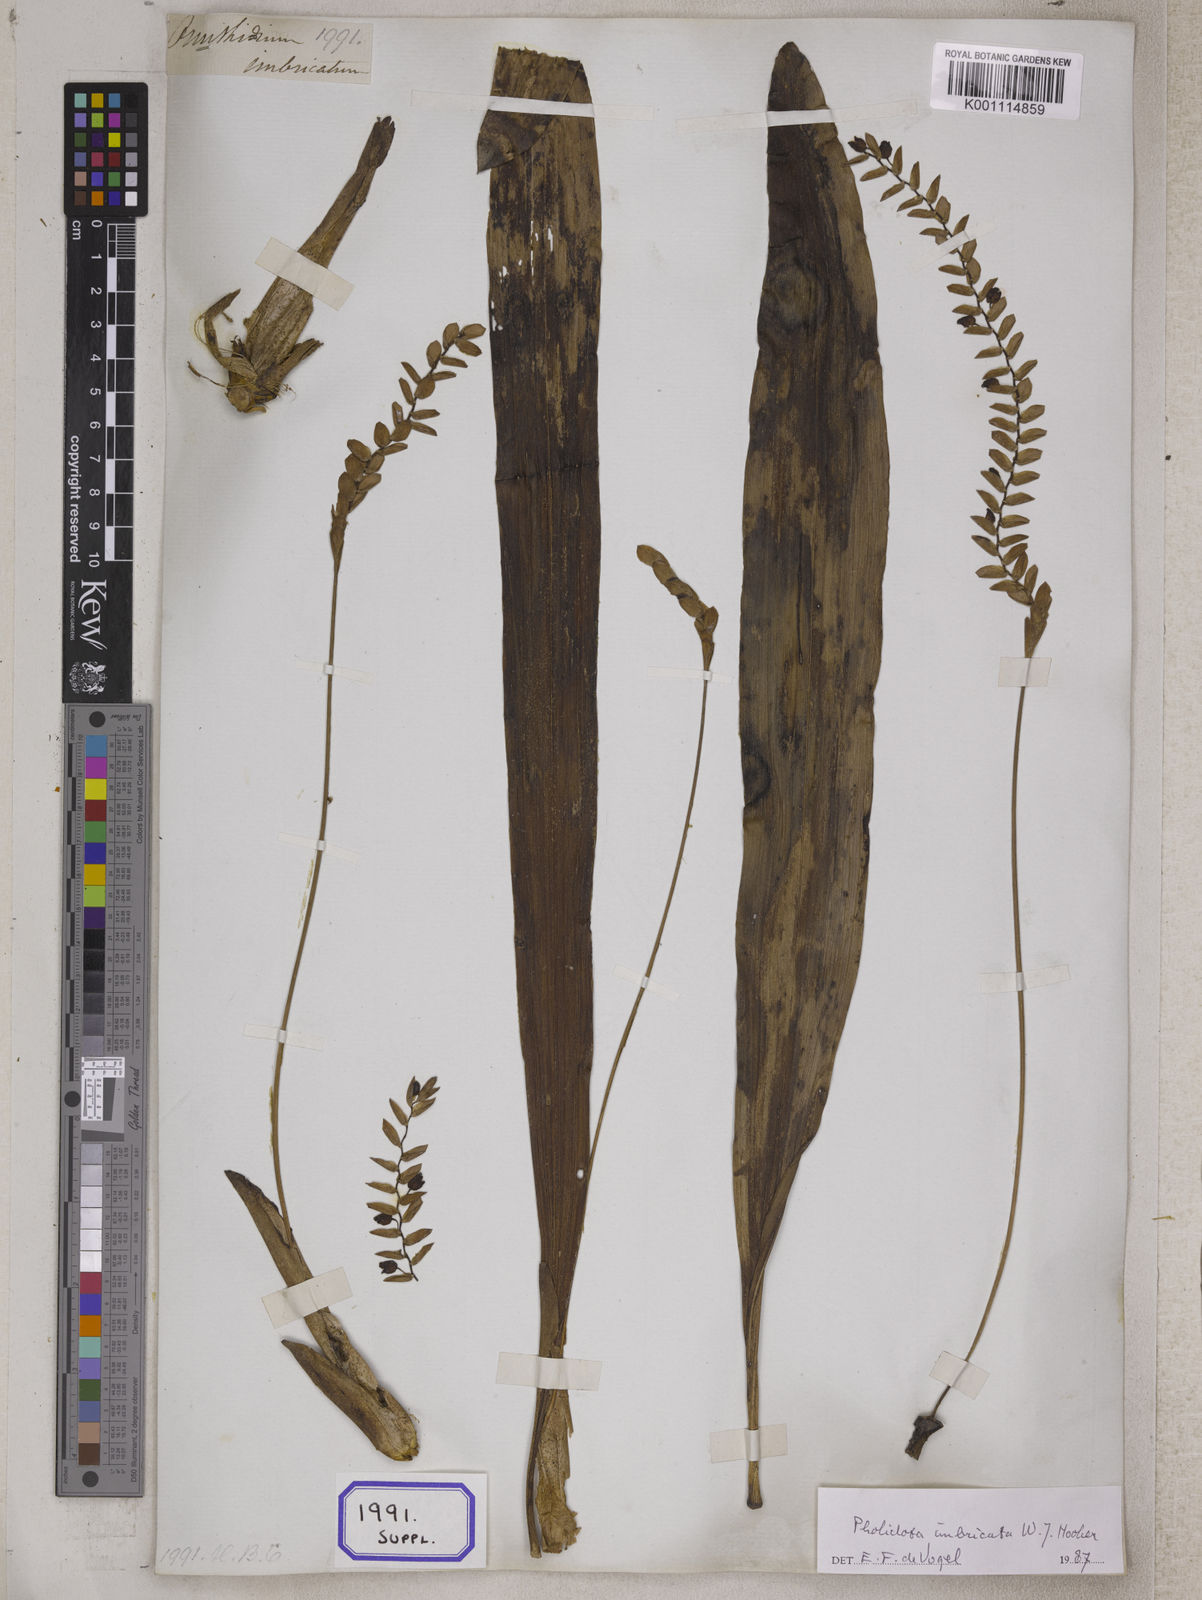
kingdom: Plantae
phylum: Tracheophyta
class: Liliopsida
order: Asparagales
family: Orchidaceae
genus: Pholidota
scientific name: Pholidota
